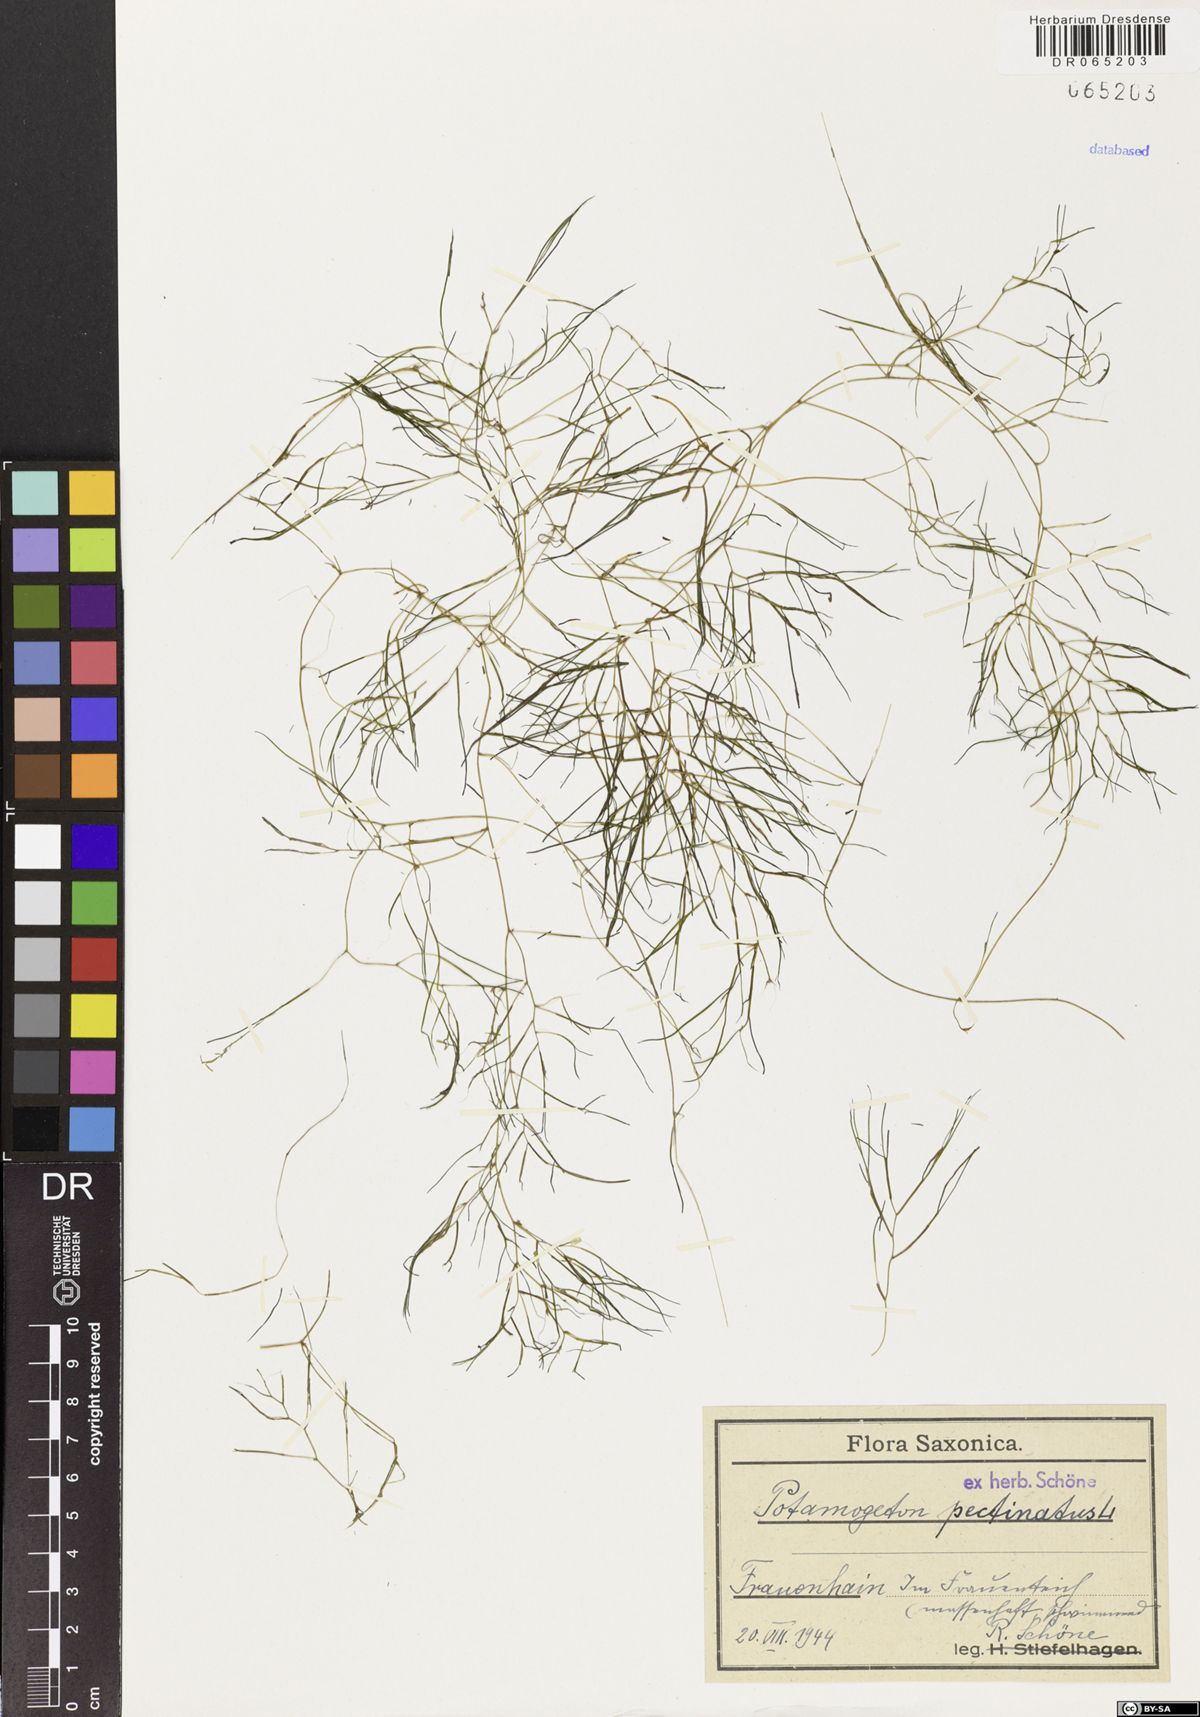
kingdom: Plantae
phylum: Tracheophyta
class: Liliopsida
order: Alismatales
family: Potamogetonaceae
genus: Stuckenia
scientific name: Stuckenia pectinata
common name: Sago pondweed
